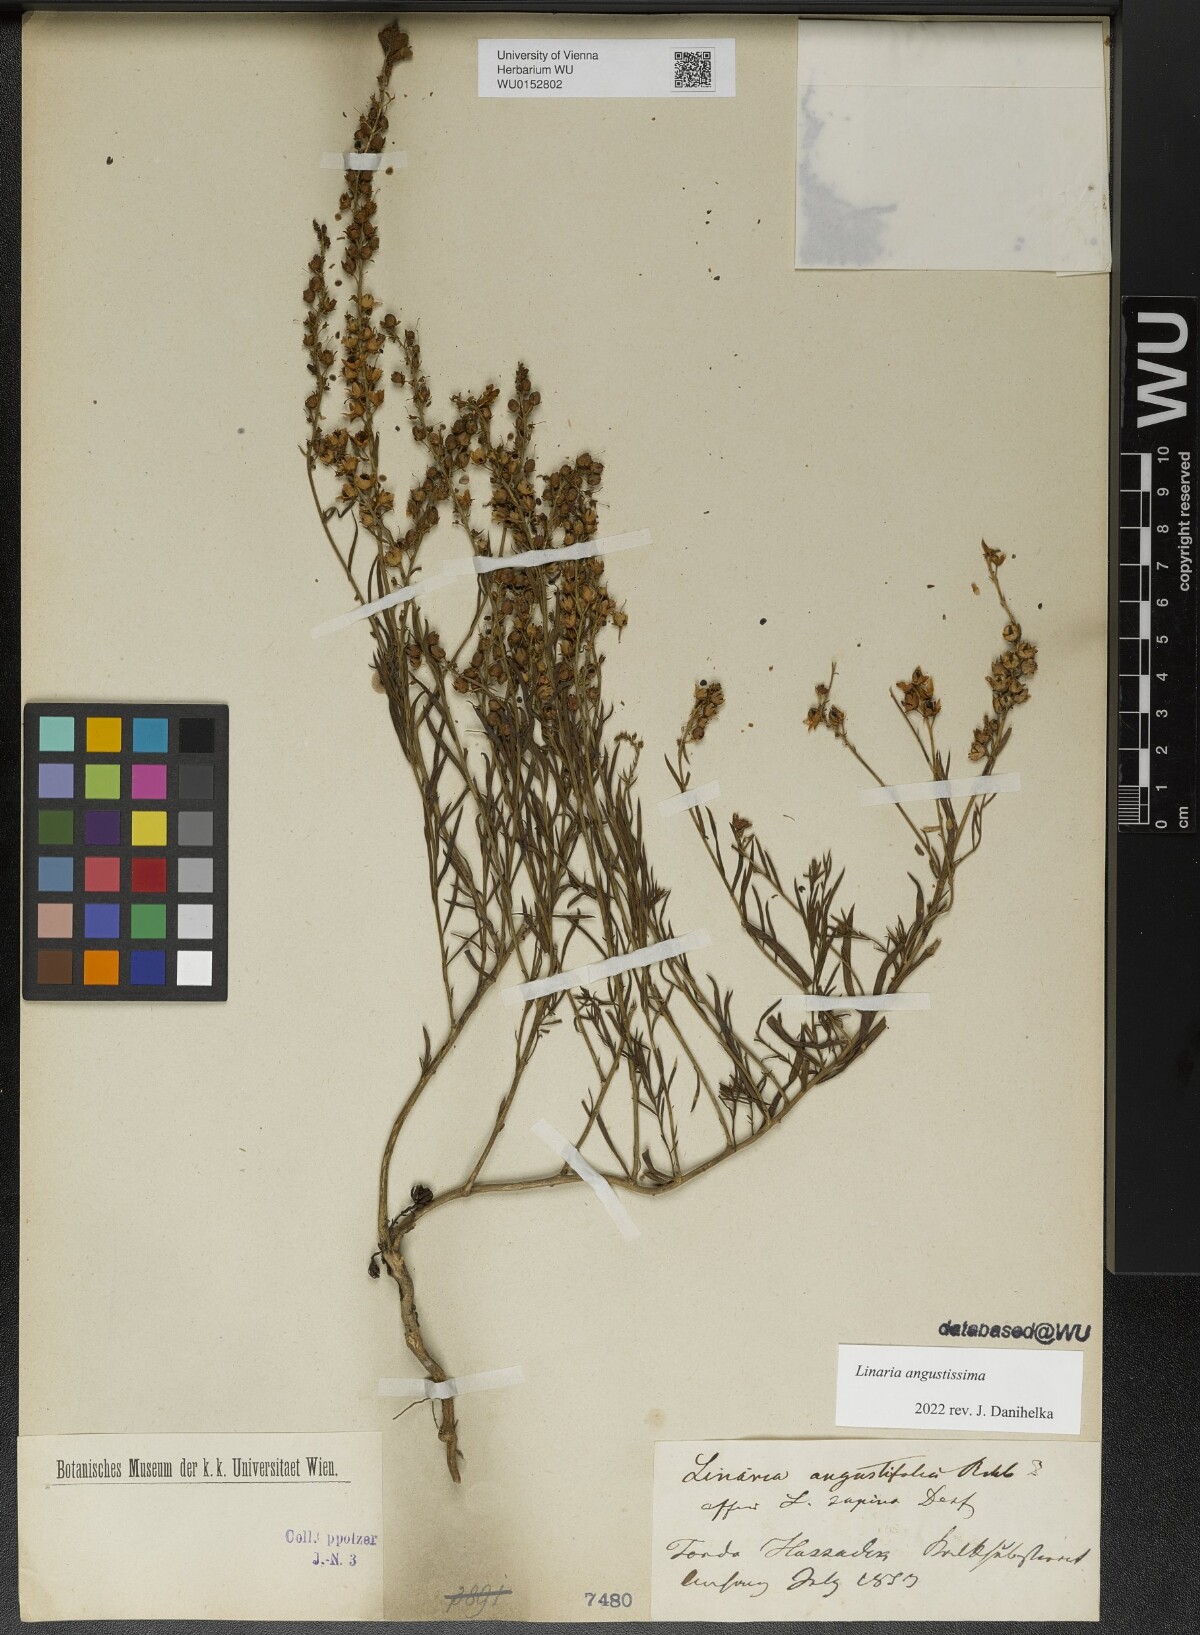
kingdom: Plantae
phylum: Tracheophyta
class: Magnoliopsida
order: Lamiales
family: Plantaginaceae
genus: Linaria
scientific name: Linaria angustissima
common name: Italian toadflax
